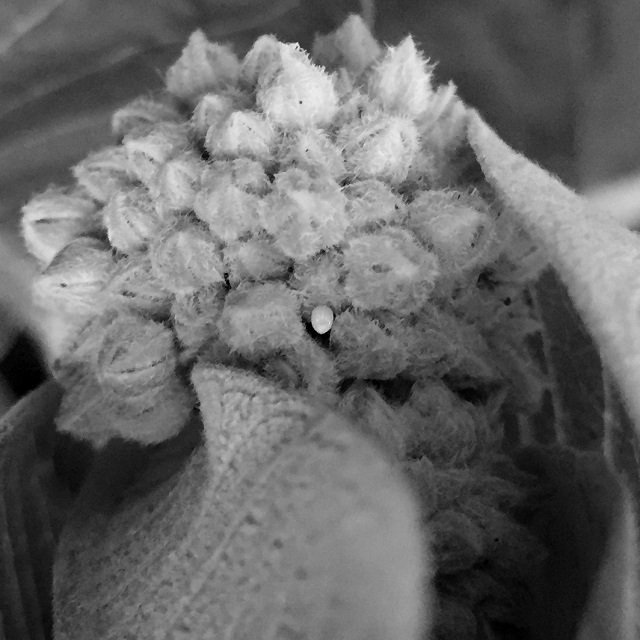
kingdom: Animalia
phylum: Arthropoda
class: Insecta
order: Lepidoptera
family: Nymphalidae
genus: Danaus
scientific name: Danaus plexippus
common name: Monarch
